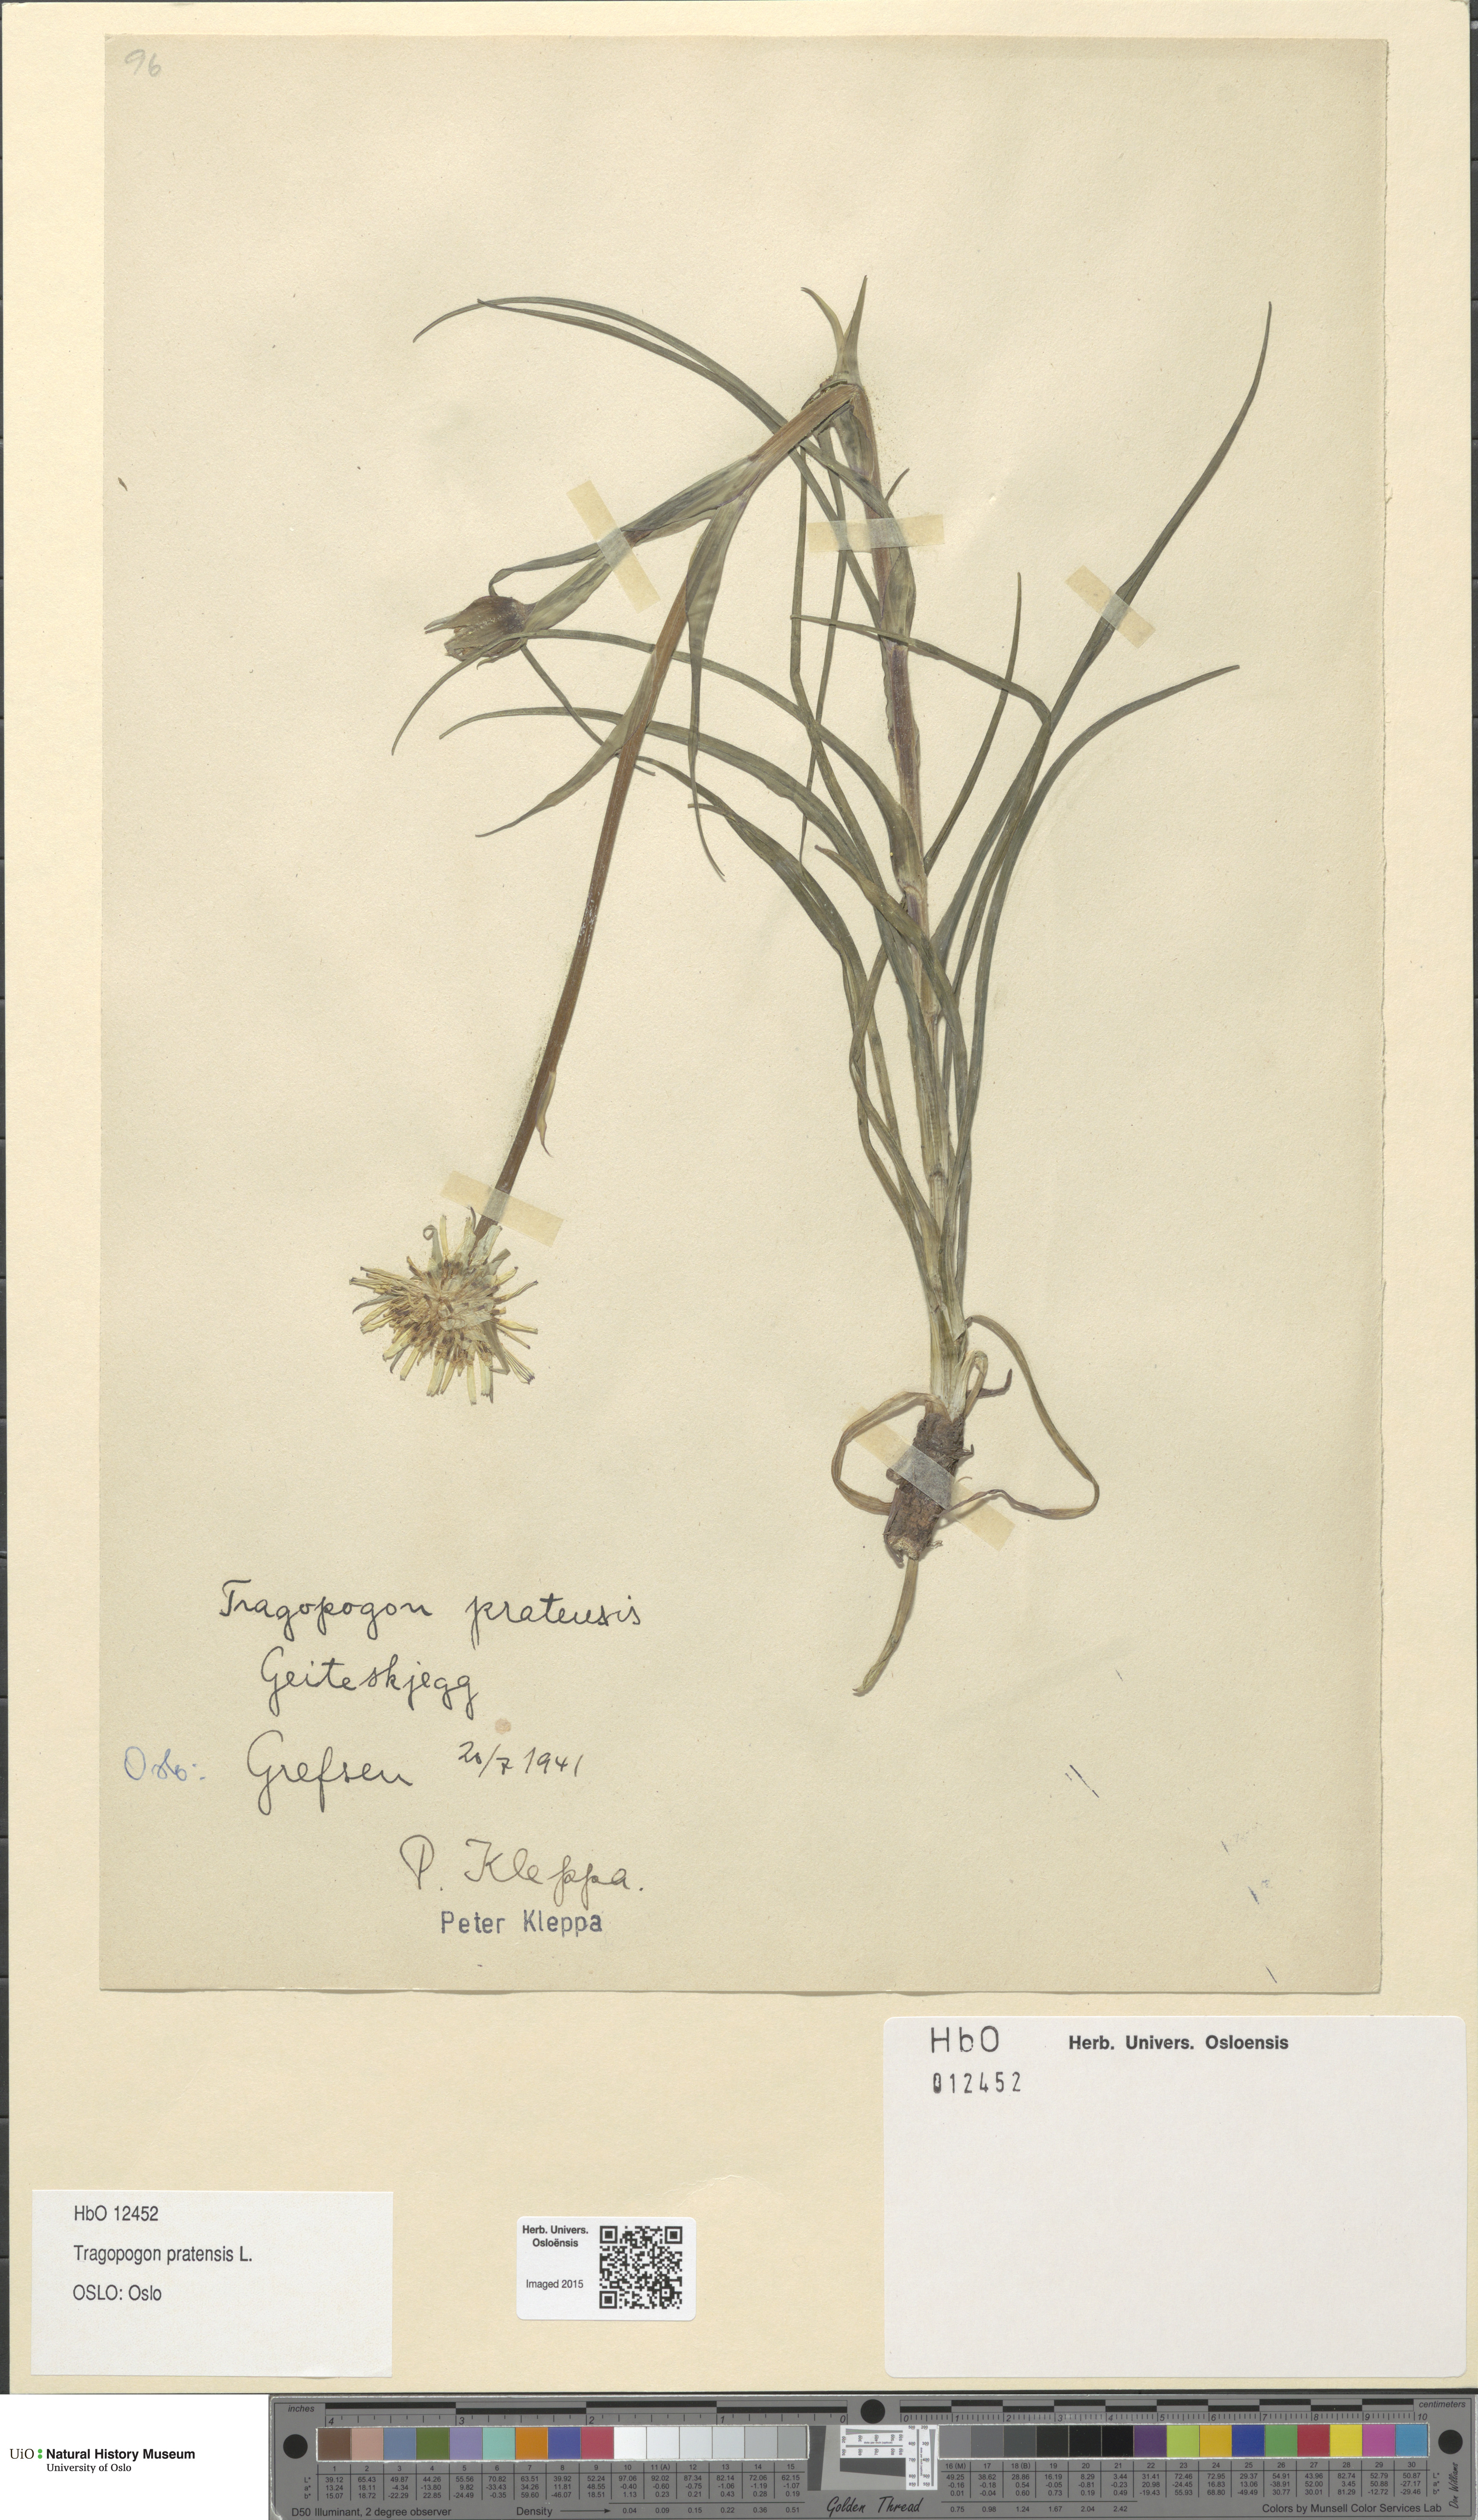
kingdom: Plantae
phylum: Tracheophyta
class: Magnoliopsida
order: Asterales
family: Asteraceae
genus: Tragopogon
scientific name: Tragopogon pratensis
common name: Goat's-beard
